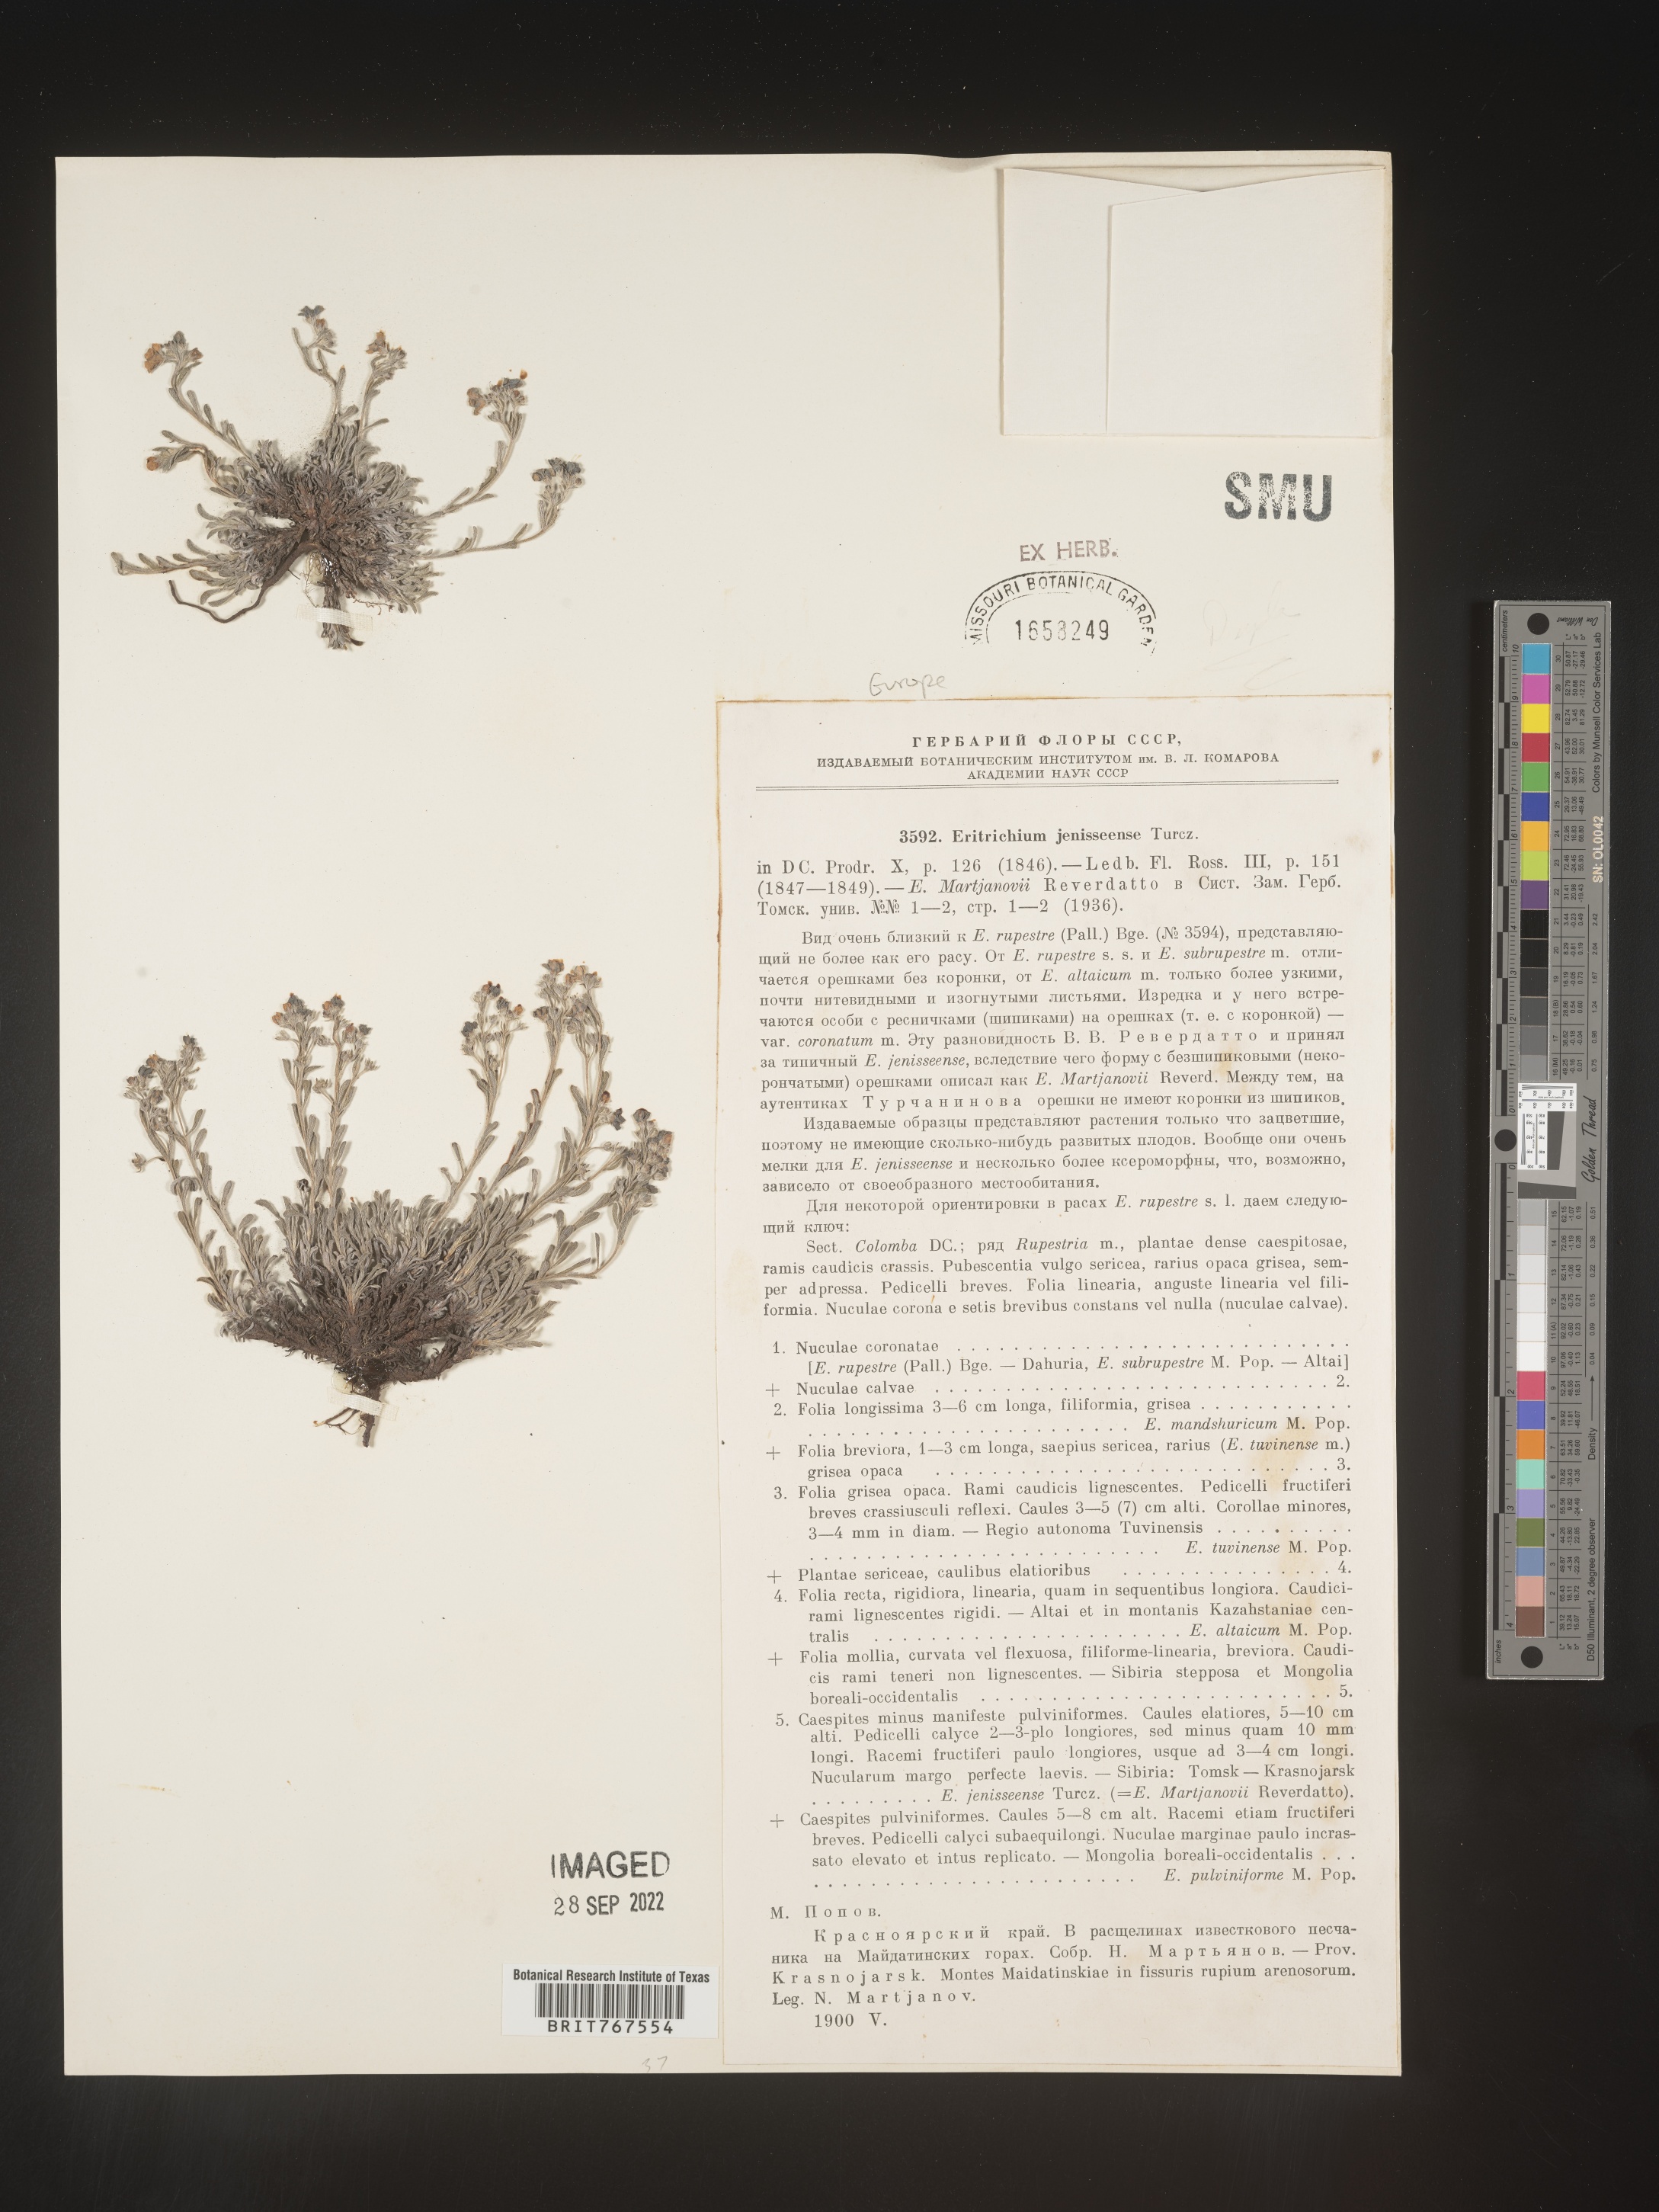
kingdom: Plantae
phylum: Tracheophyta
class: Magnoliopsida
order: Boraginales
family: Boraginaceae
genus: Eritrichium
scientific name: Eritrichium
